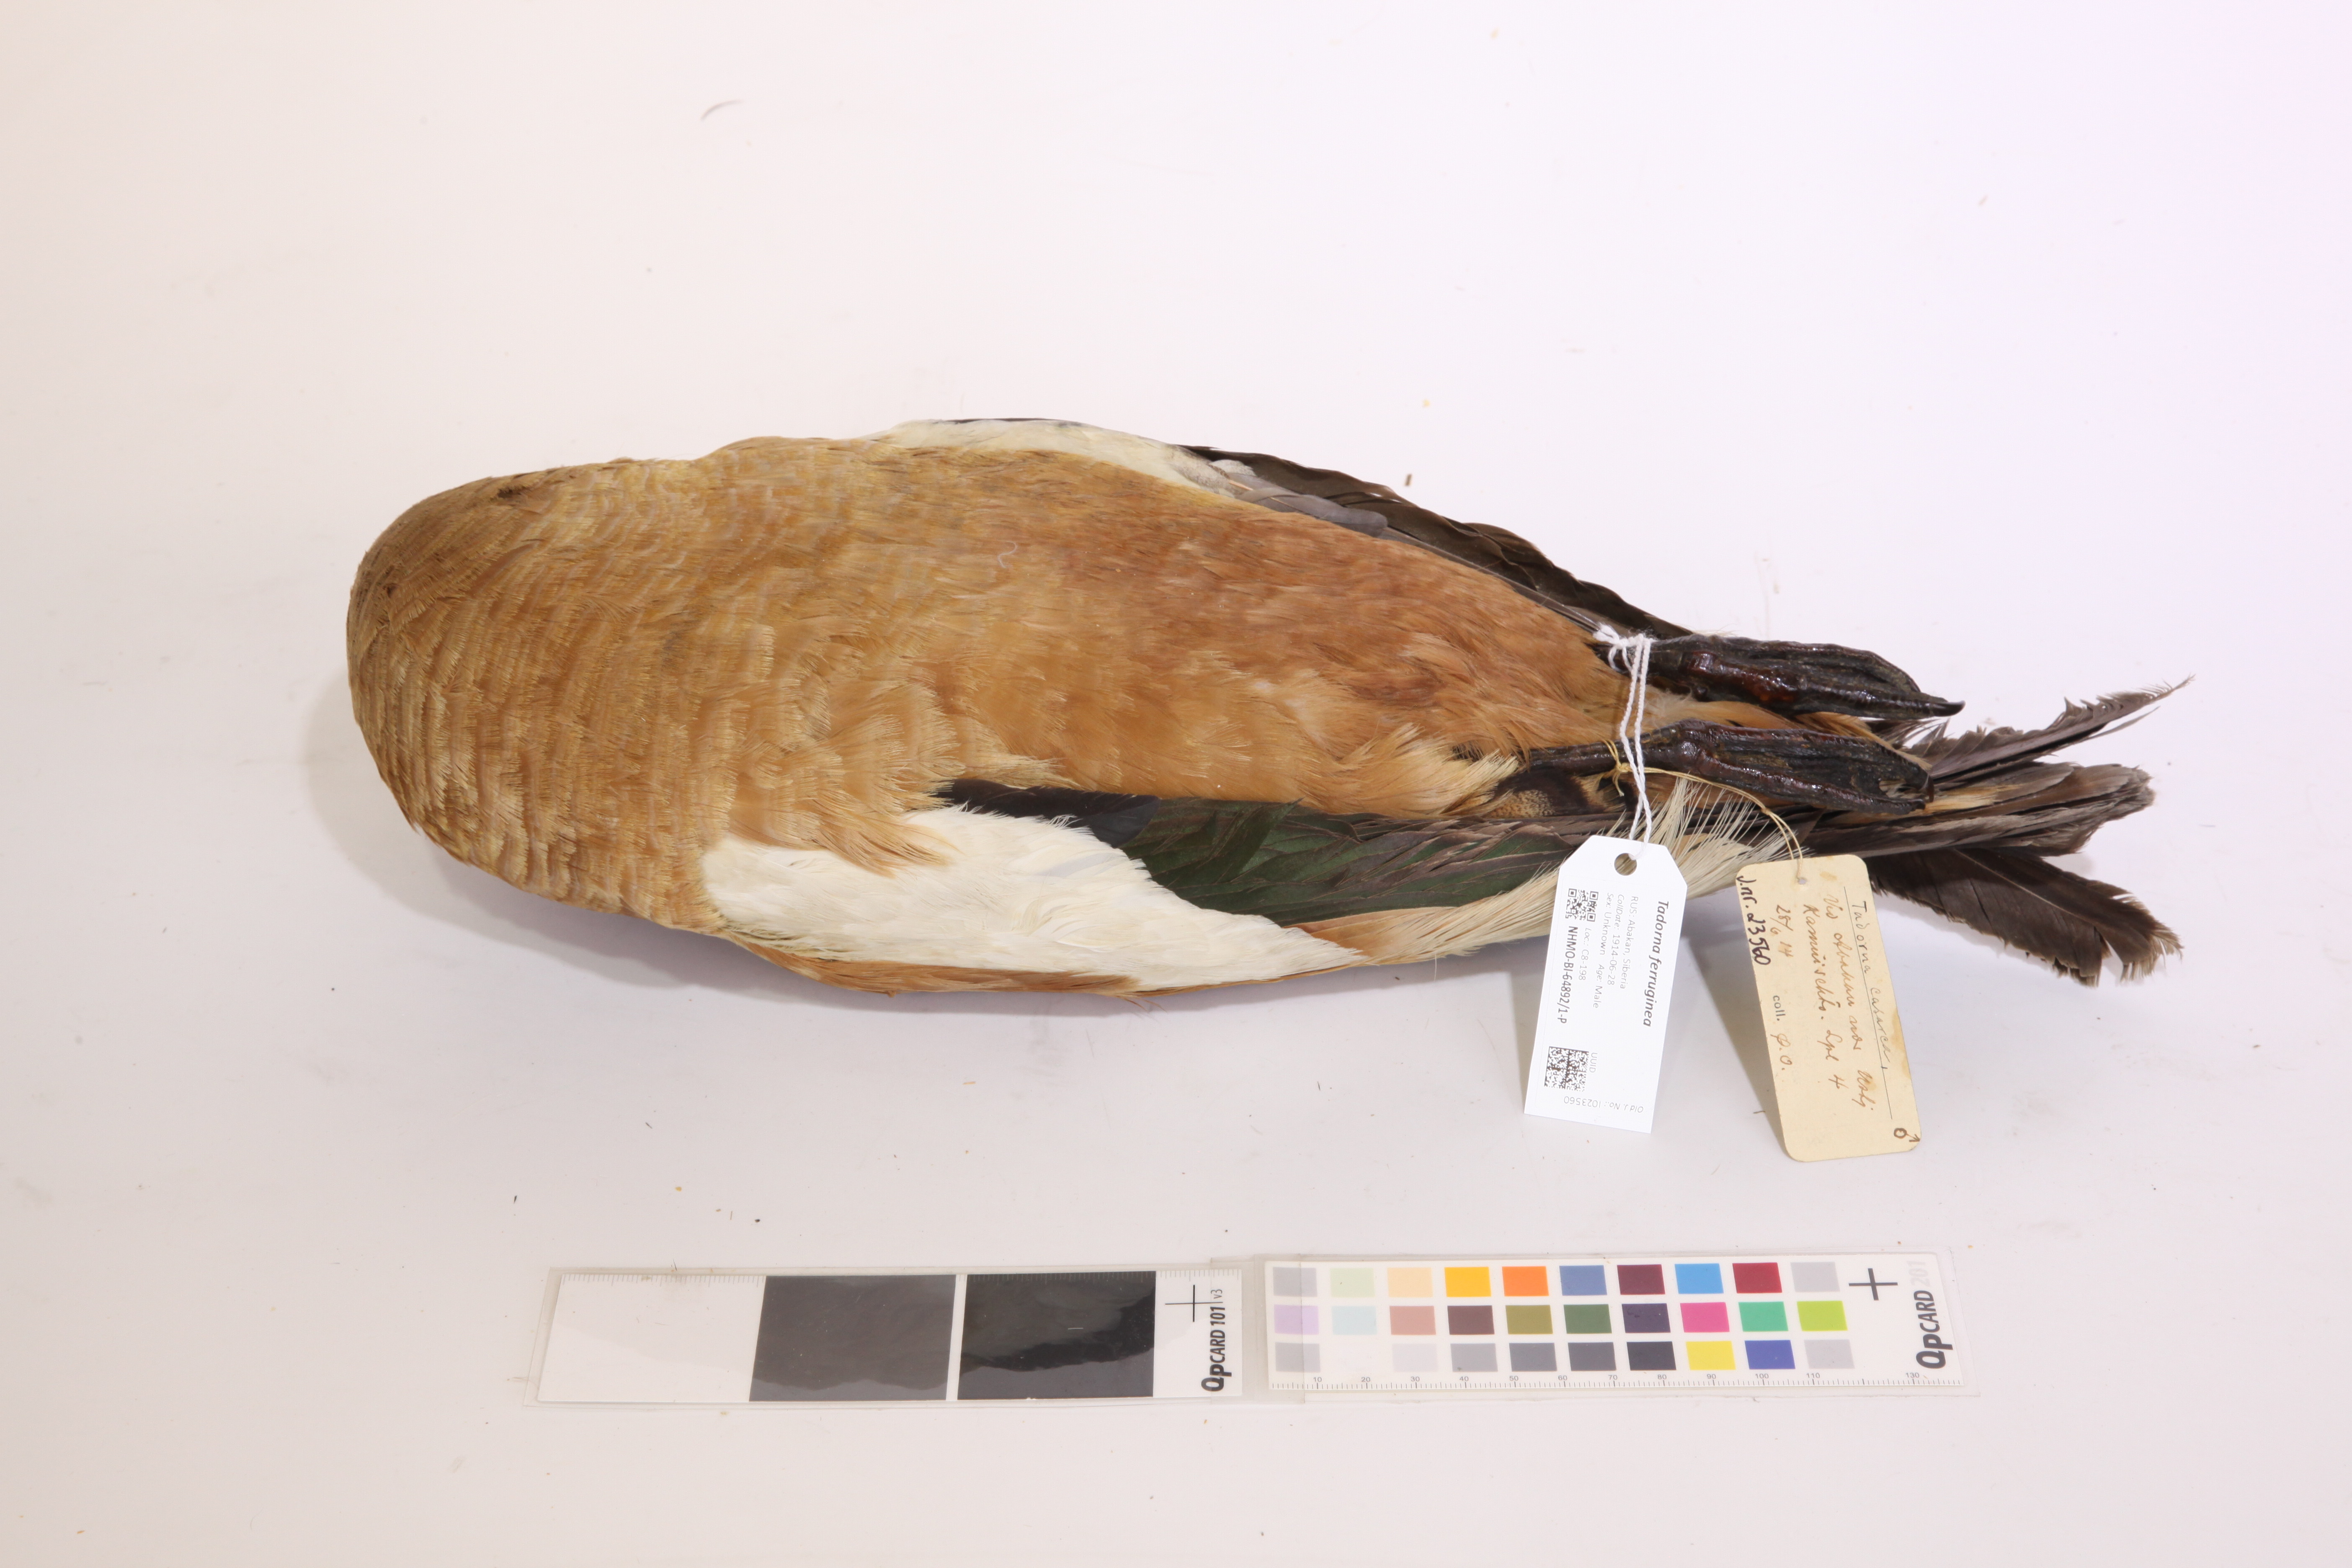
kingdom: Animalia
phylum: Chordata
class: Aves
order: Anseriformes
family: Anatidae
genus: Tadorna
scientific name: Tadorna ferruginea
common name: Ruddy shelduck
